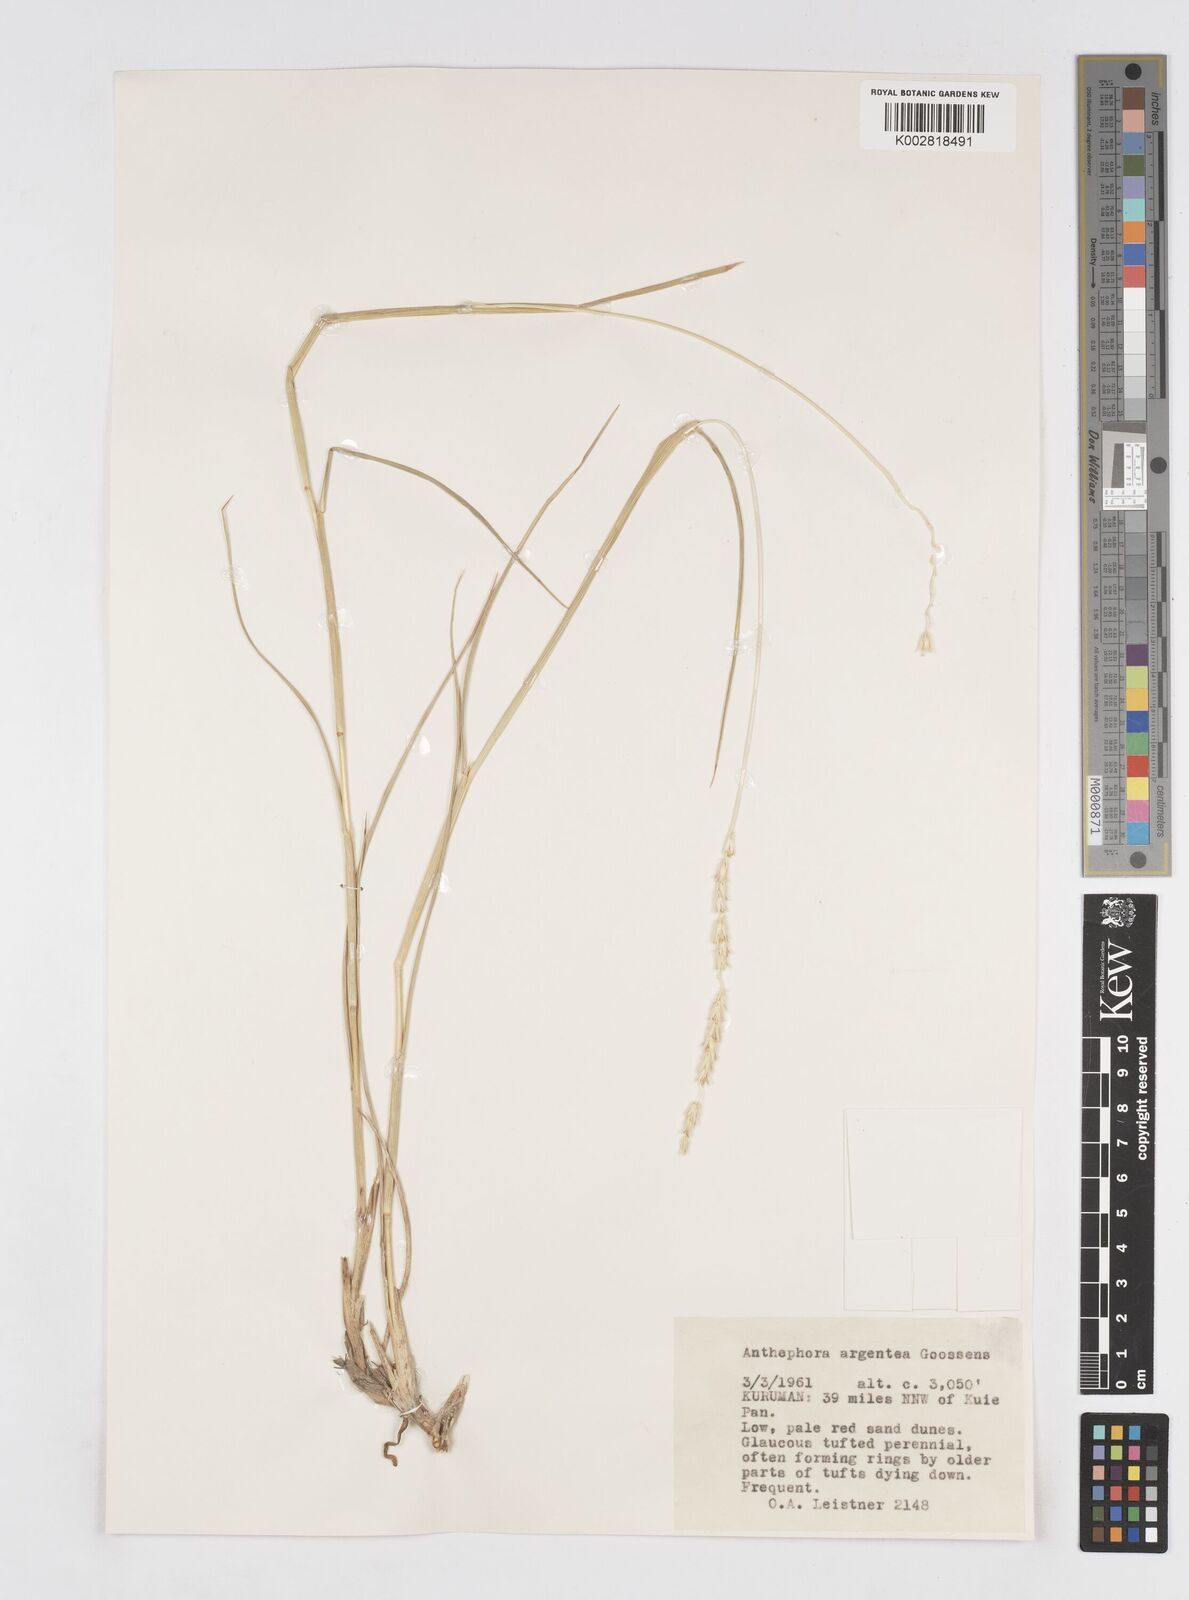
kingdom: Plantae
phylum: Tracheophyta
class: Liliopsida
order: Poales
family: Poaceae
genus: Anthephora
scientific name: Anthephora argentea
